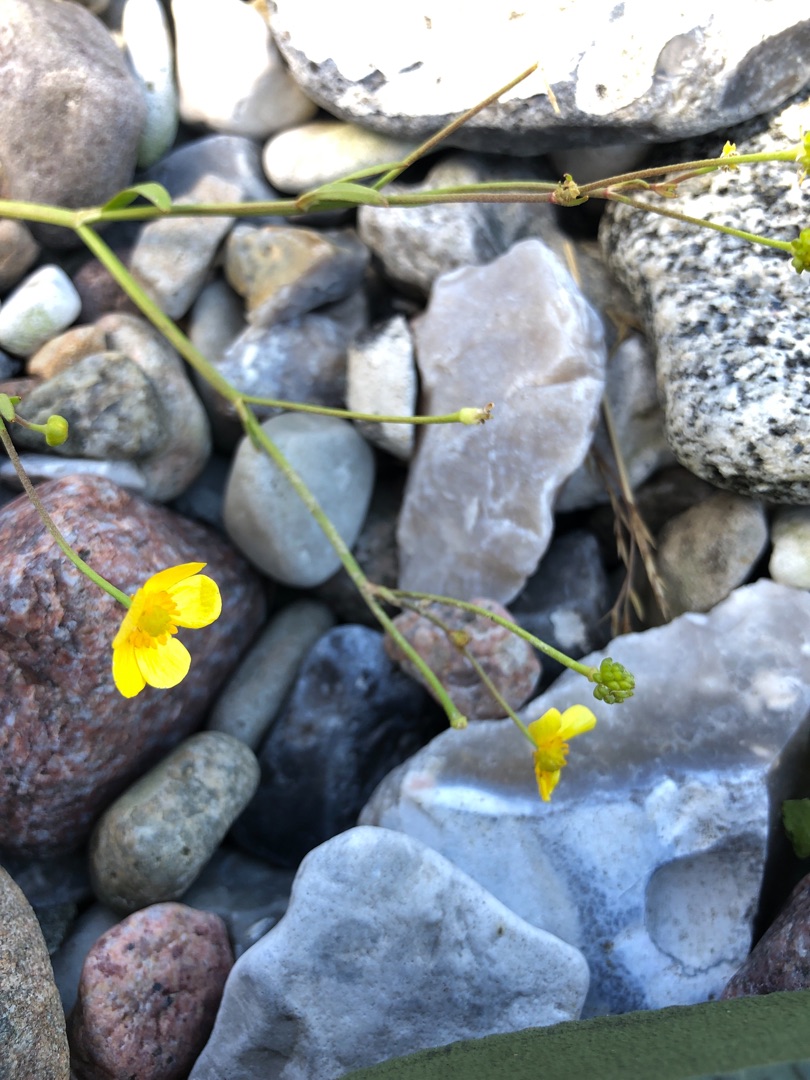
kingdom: Plantae
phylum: Tracheophyta
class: Magnoliopsida
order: Ranunculales
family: Ranunculaceae
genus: Ranunculus
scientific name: Ranunculus flammula
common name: Kær-ranunkel
